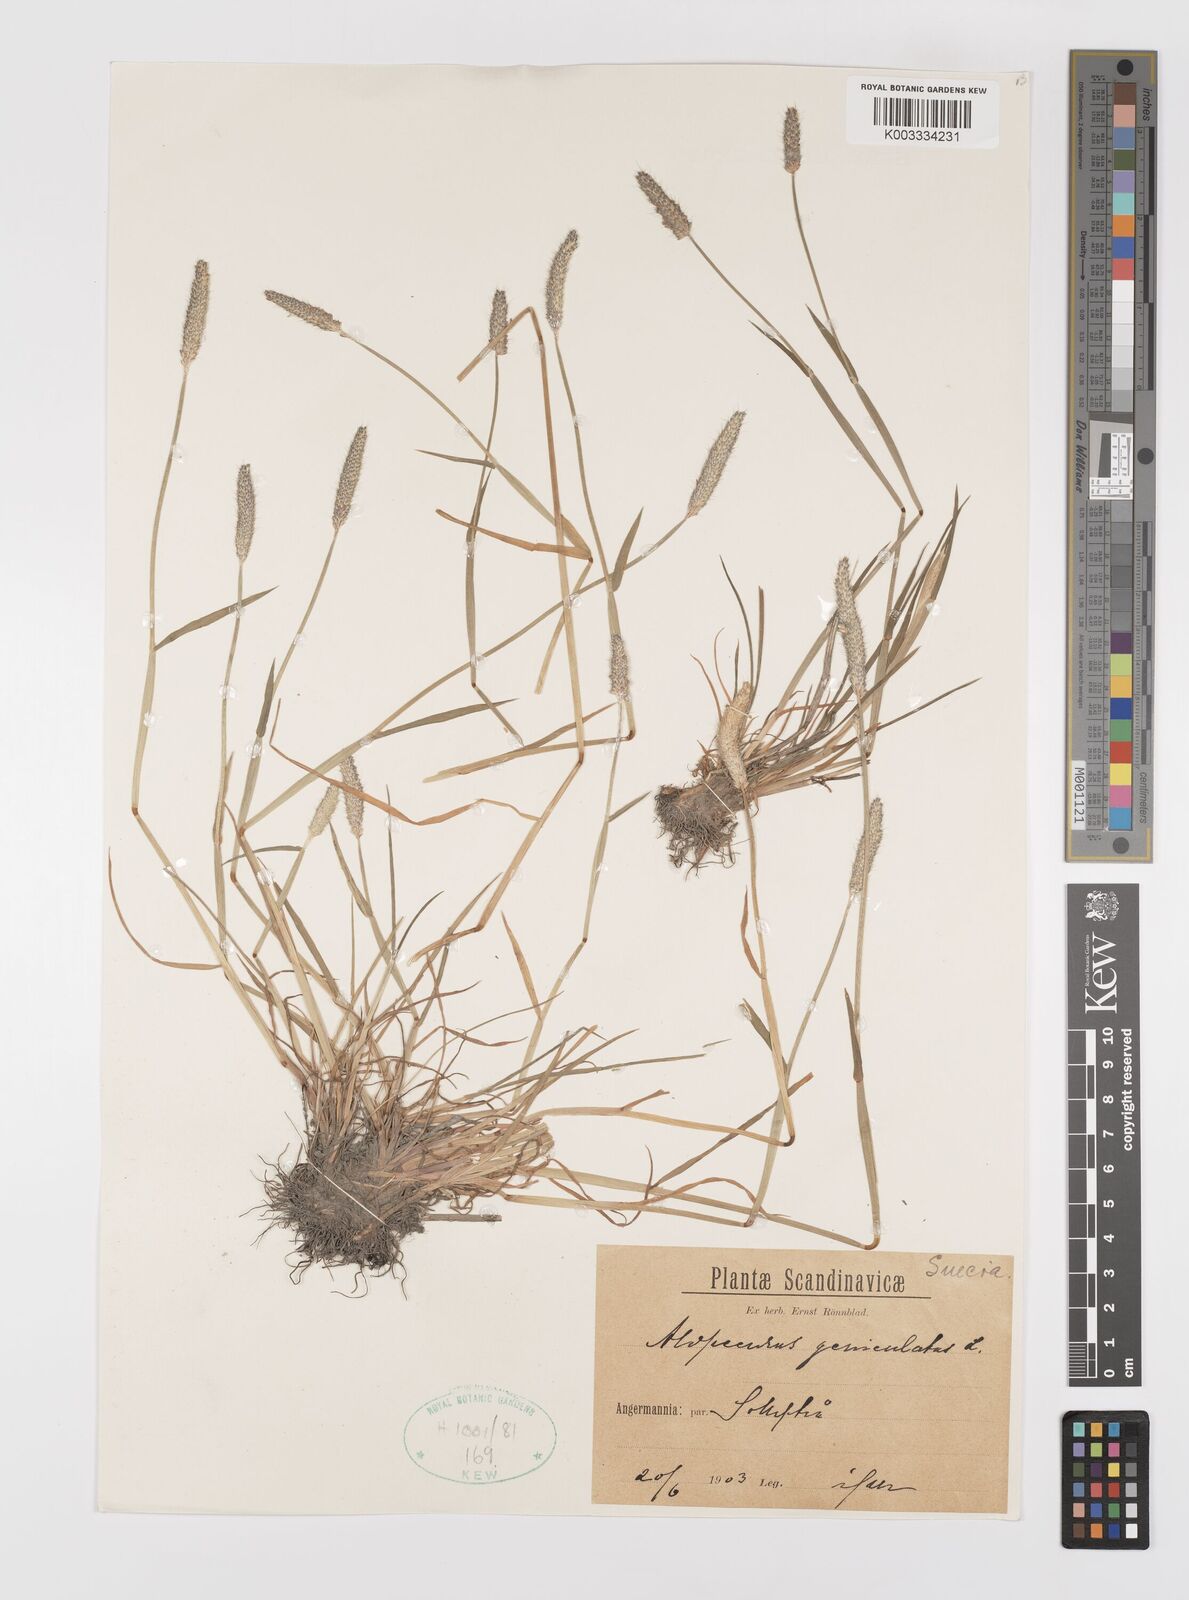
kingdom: Plantae
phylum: Tracheophyta
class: Liliopsida
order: Poales
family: Poaceae
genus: Alopecurus
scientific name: Alopecurus geniculatus
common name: Water foxtail
